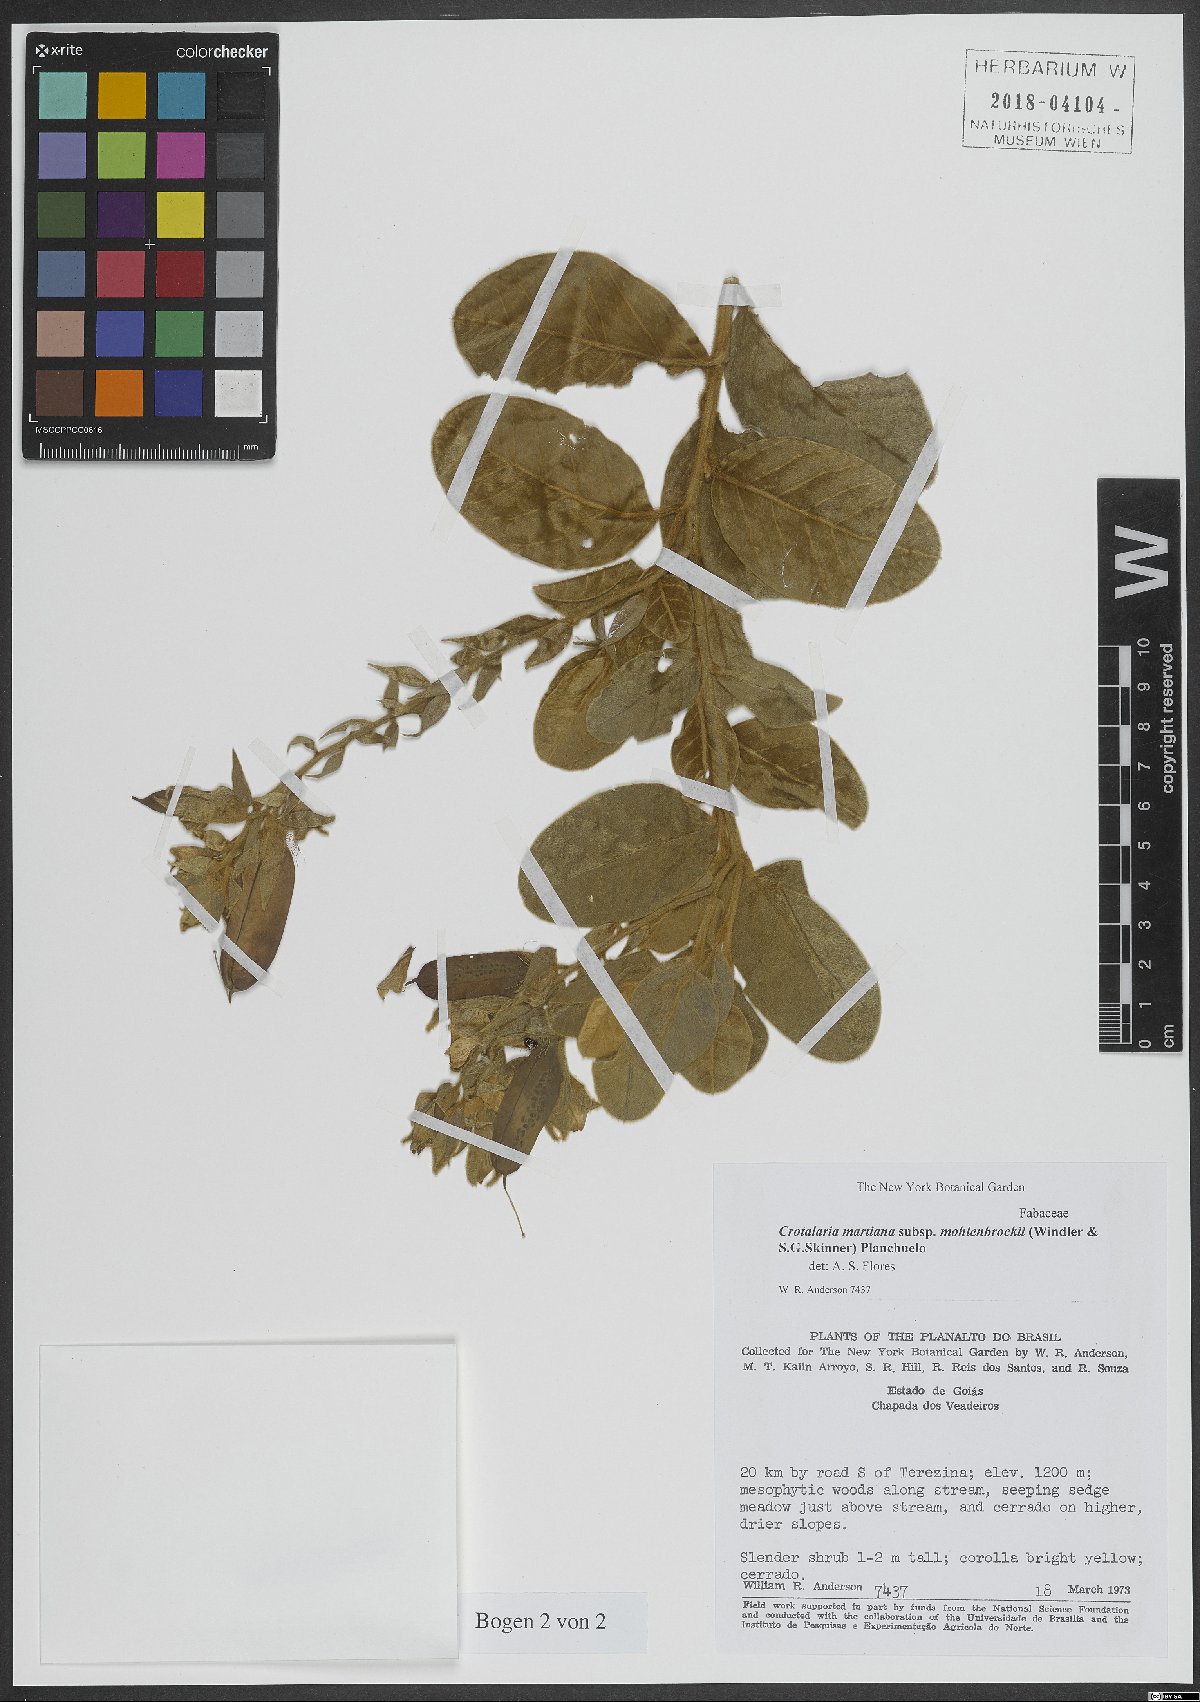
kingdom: Plantae
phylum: Tracheophyta
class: Magnoliopsida
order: Fabales
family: Fabaceae
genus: Crotalaria
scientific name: Crotalaria martiana
